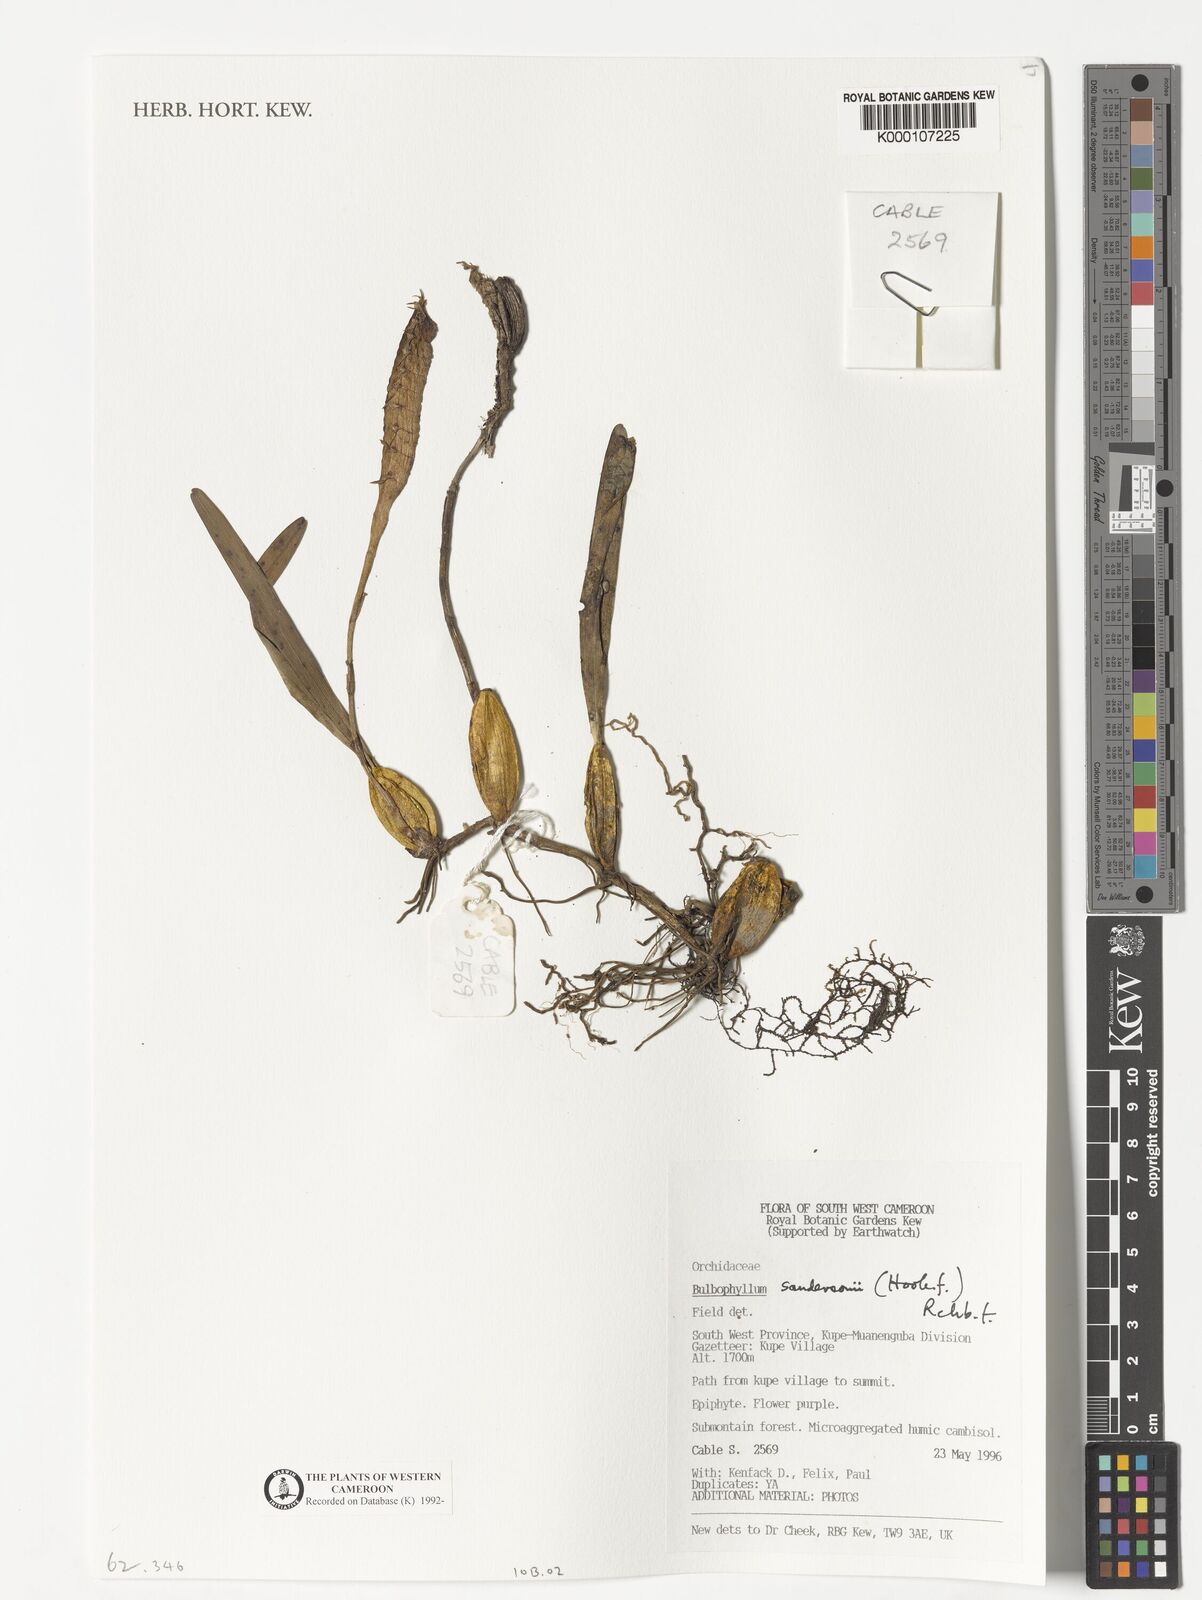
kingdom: Plantae
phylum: Tracheophyta
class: Liliopsida
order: Asparagales
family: Orchidaceae
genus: Bulbophyllum
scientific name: Bulbophyllum sandersonii
